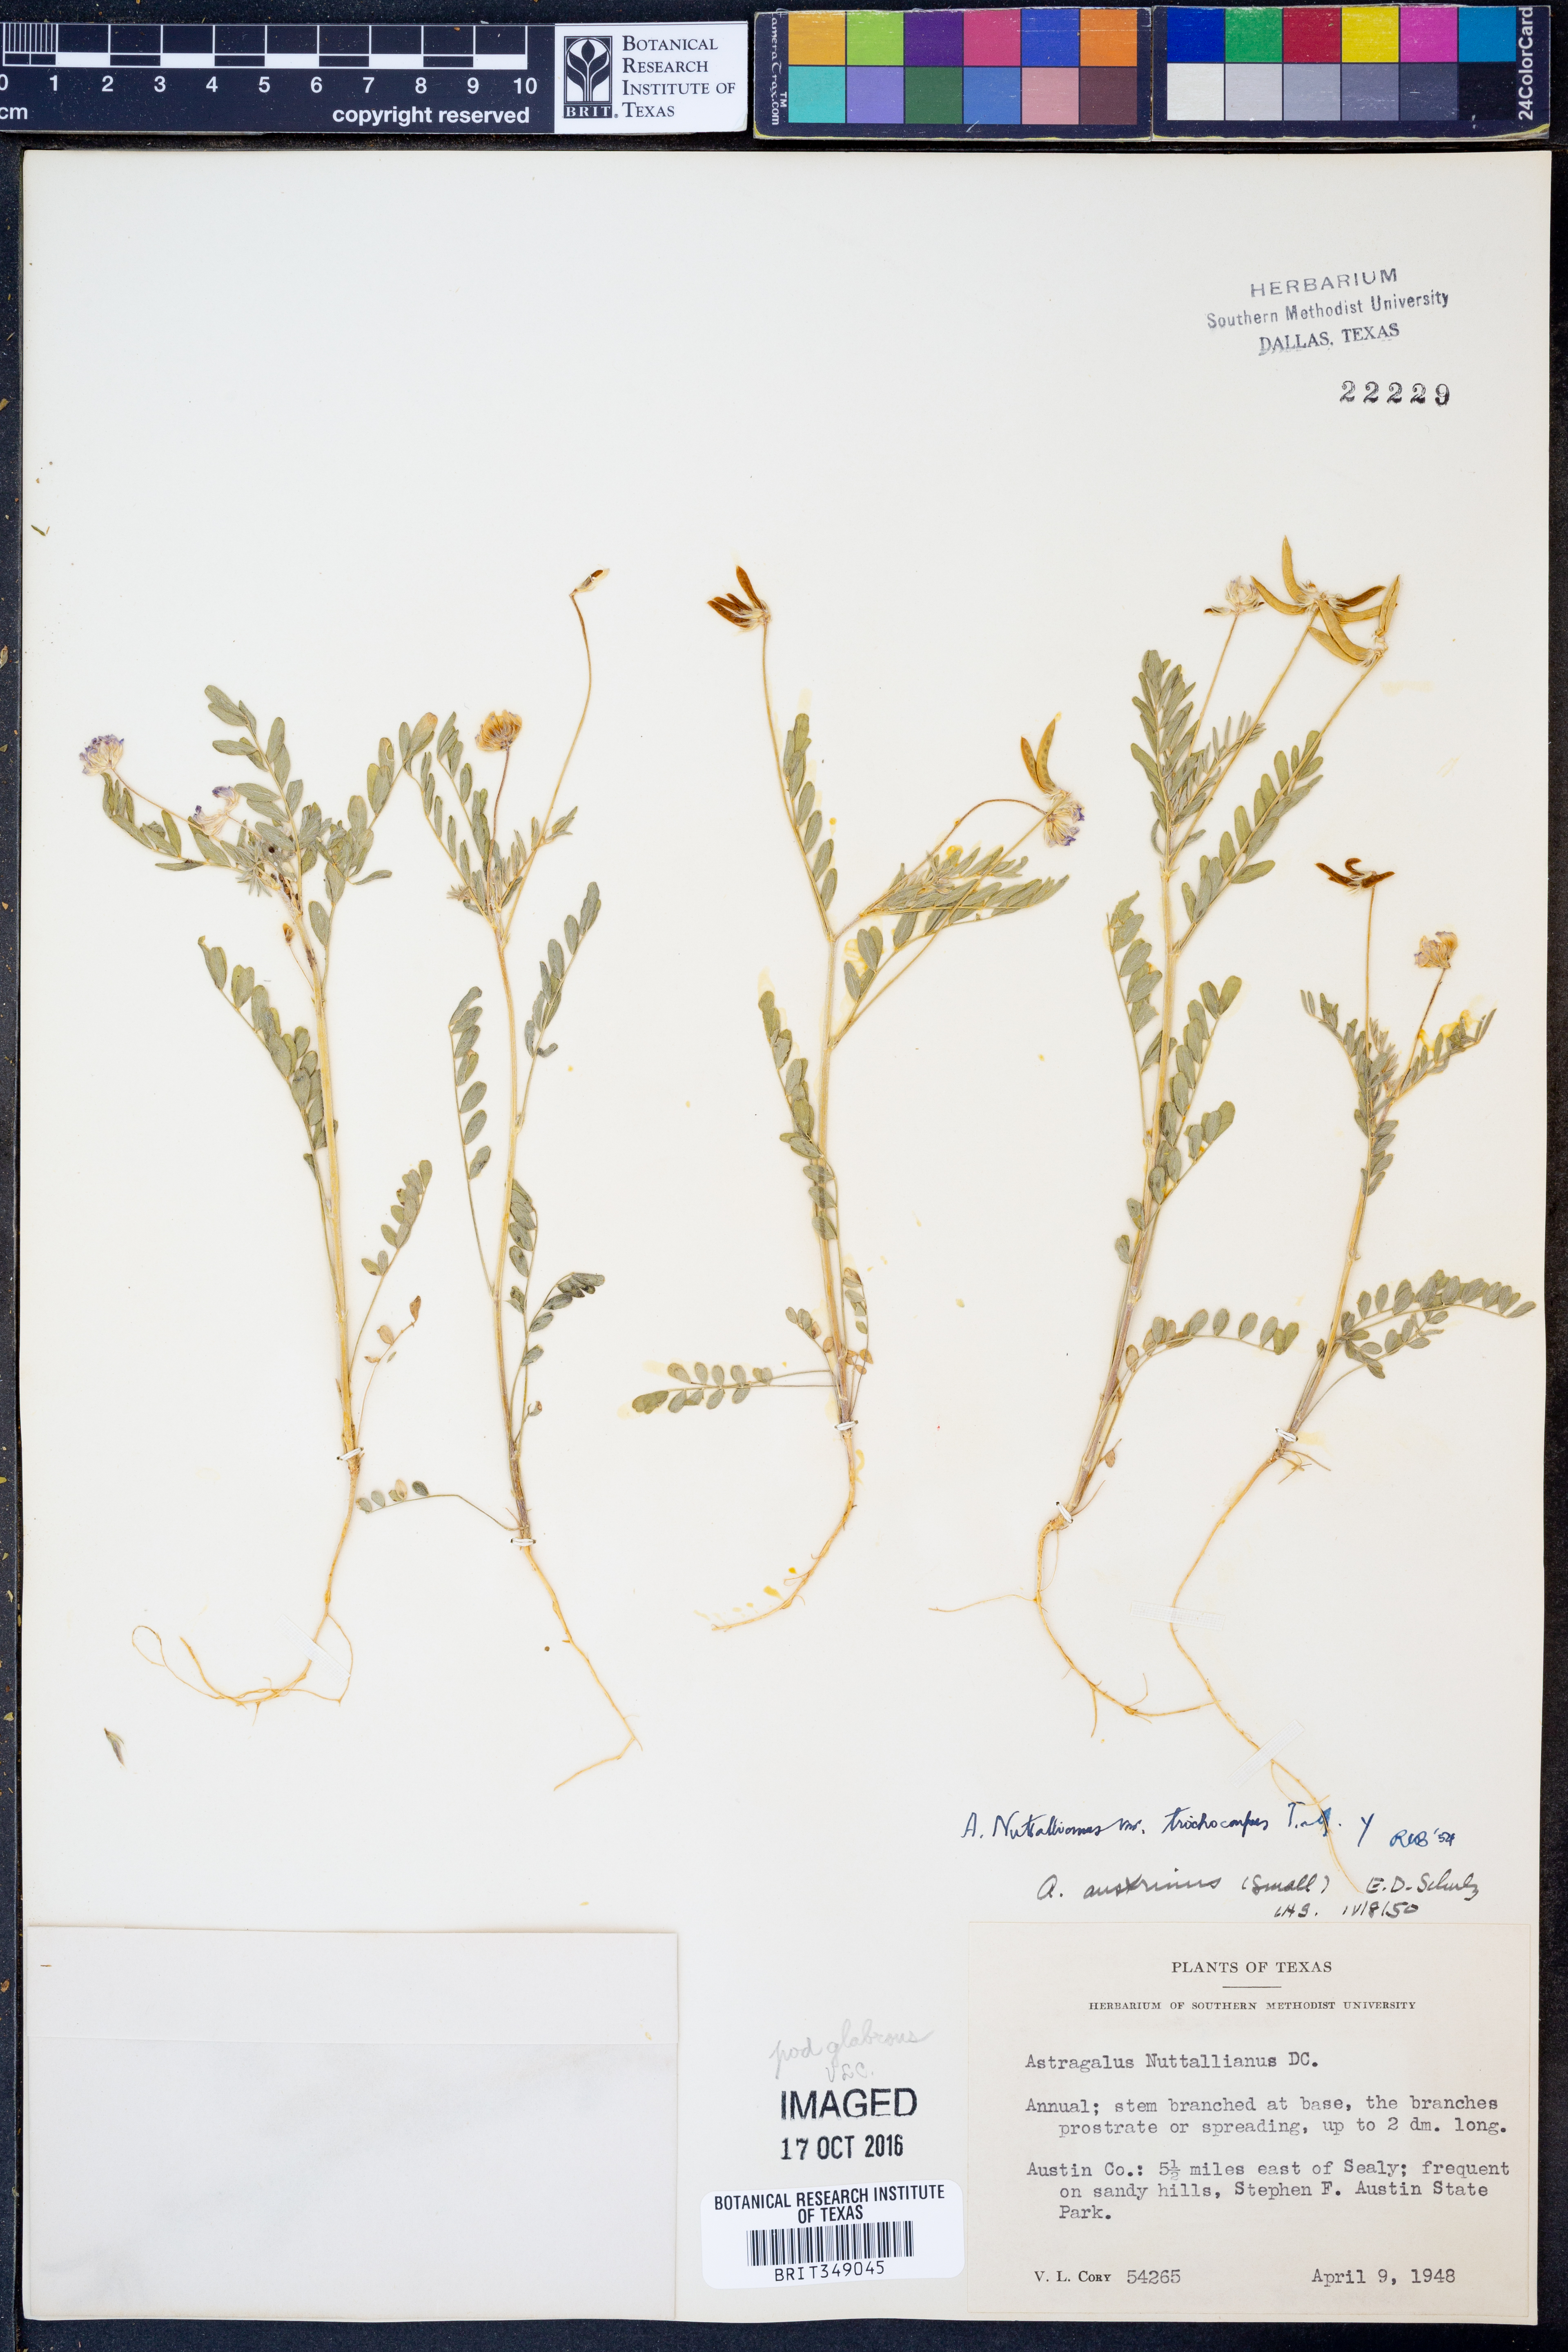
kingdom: Plantae
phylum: Tracheophyta
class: Magnoliopsida
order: Fabales
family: Fabaceae
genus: Astragalus
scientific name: Astragalus nuttallianus
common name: Smallflowered milkvetch
